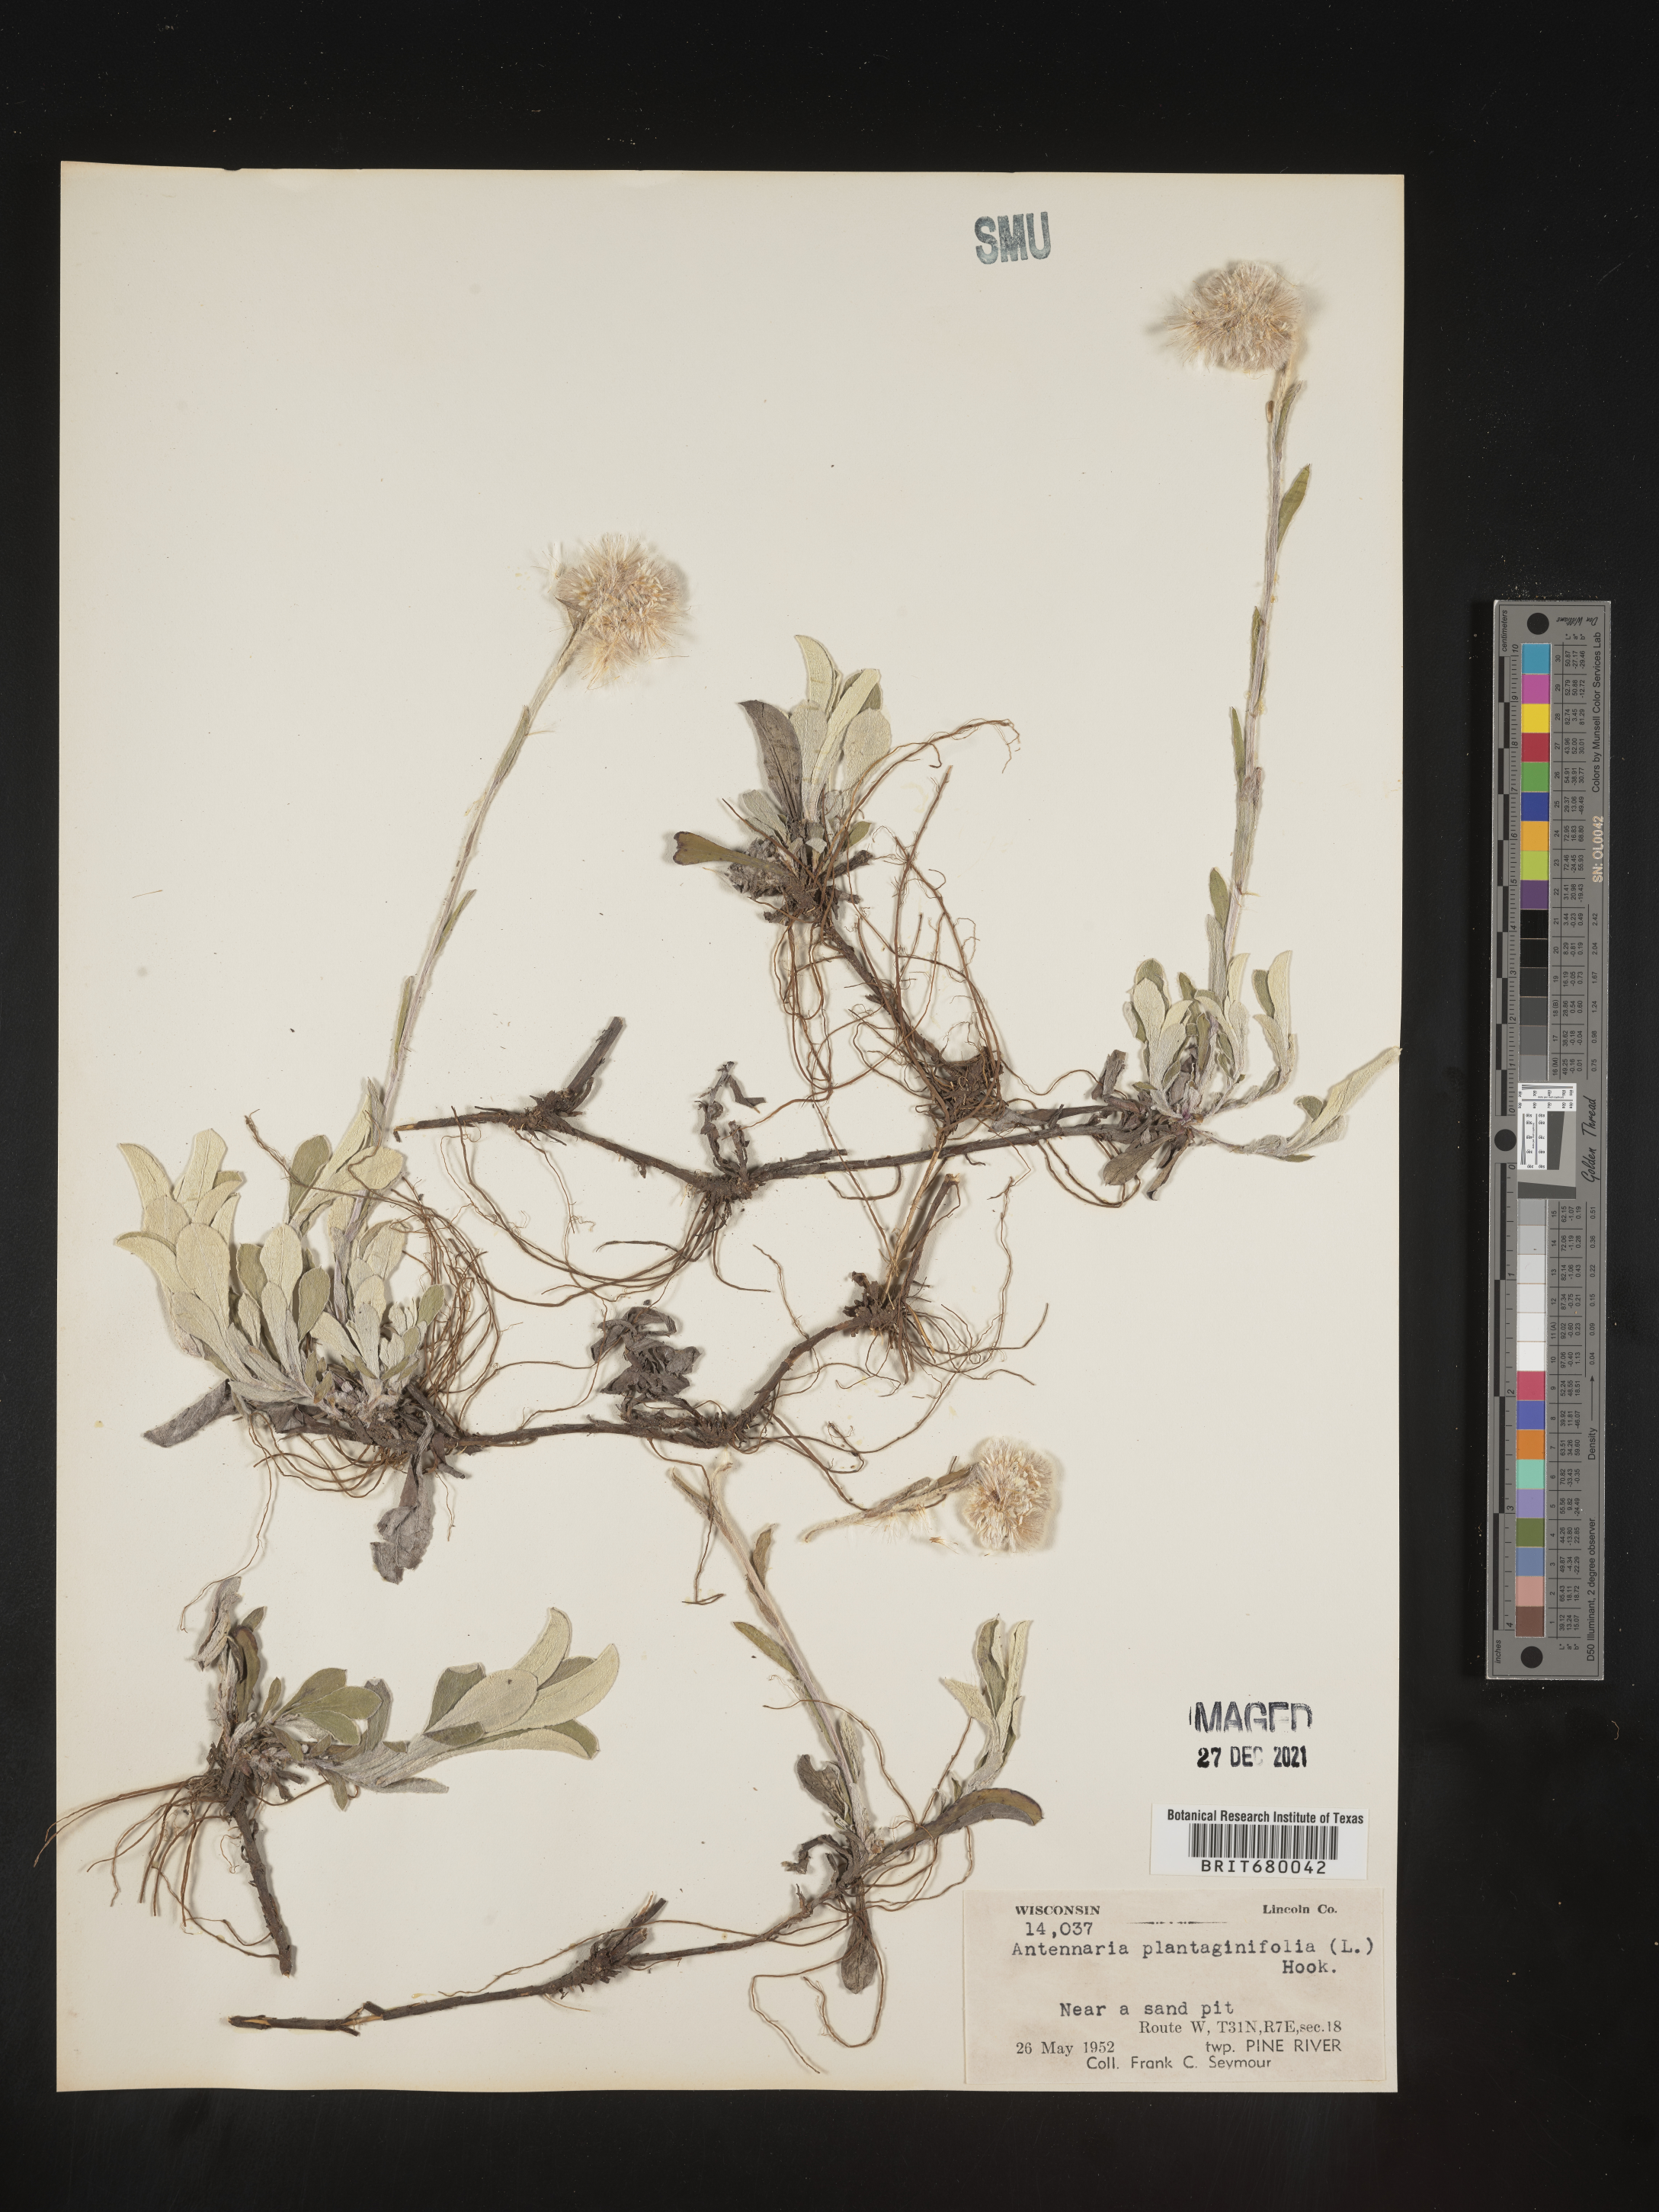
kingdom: Plantae
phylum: Tracheophyta
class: Magnoliopsida
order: Asterales
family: Asteraceae
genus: Antennaria
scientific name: Antennaria plantaginifolia
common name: Plantain-leaved pussytoes
